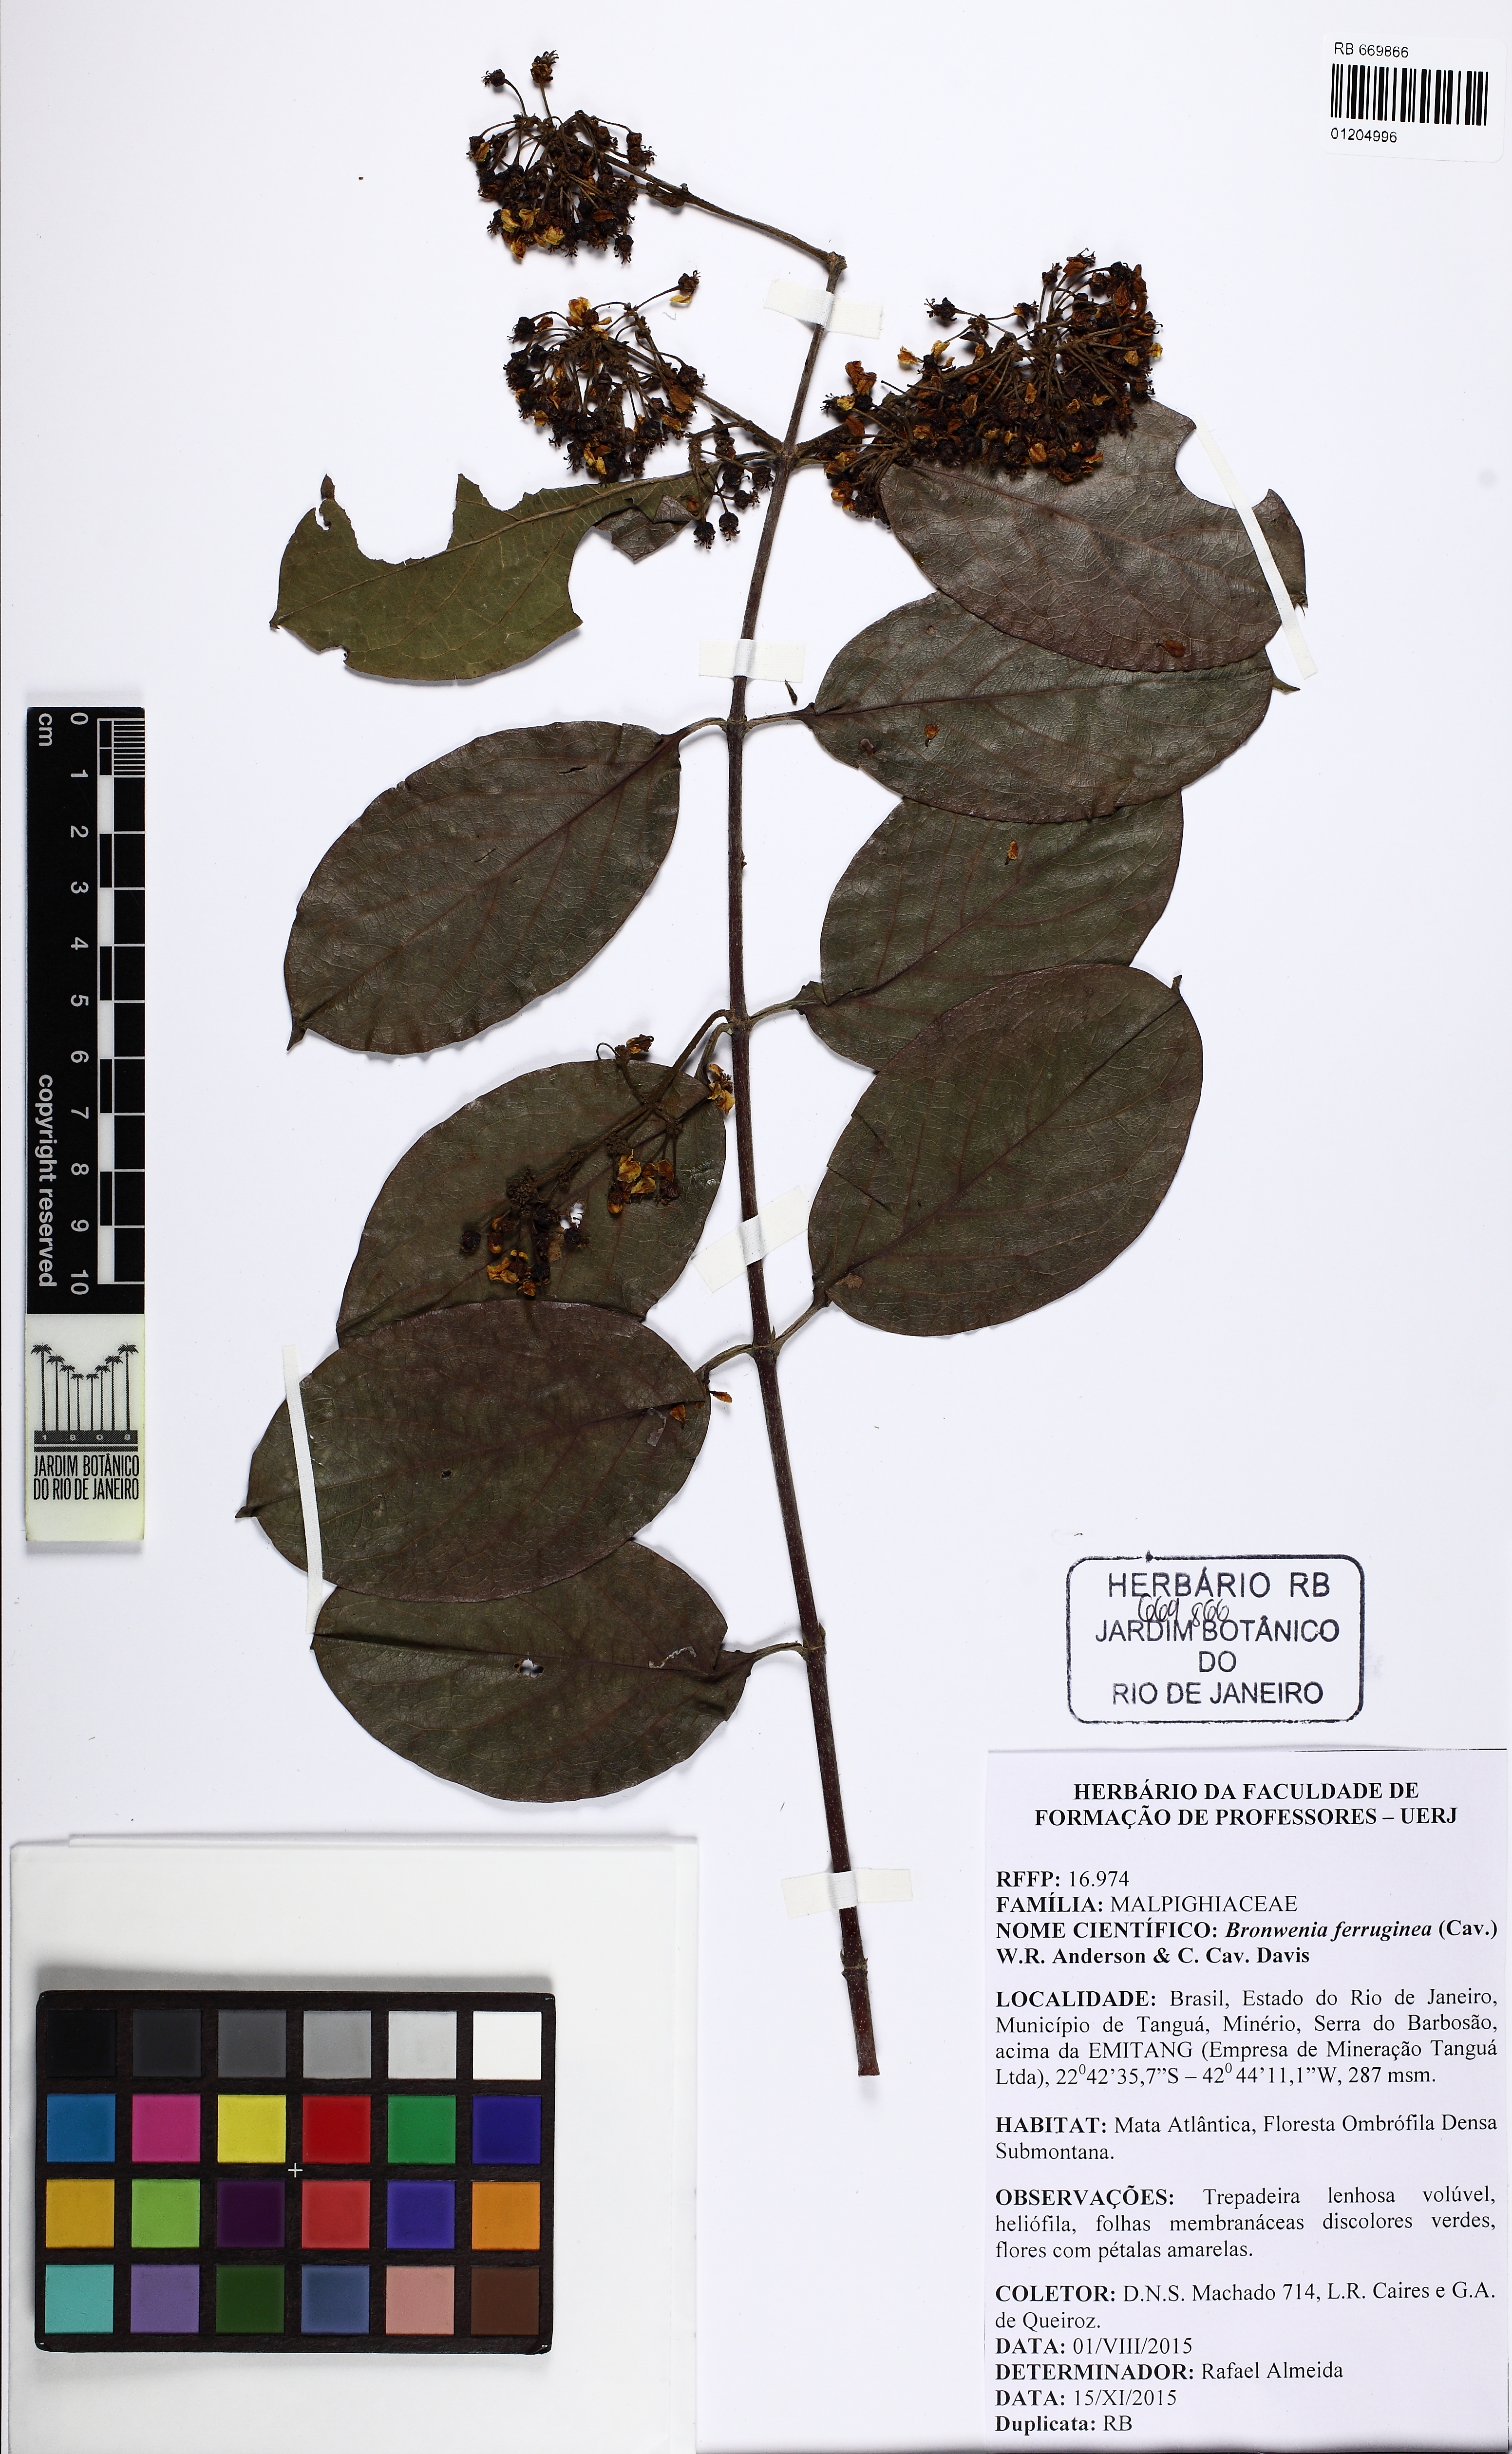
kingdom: Plantae
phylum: Tracheophyta
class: Magnoliopsida
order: Malpighiales
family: Malpighiaceae
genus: Bronwenia
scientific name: Bronwenia ferruginea
